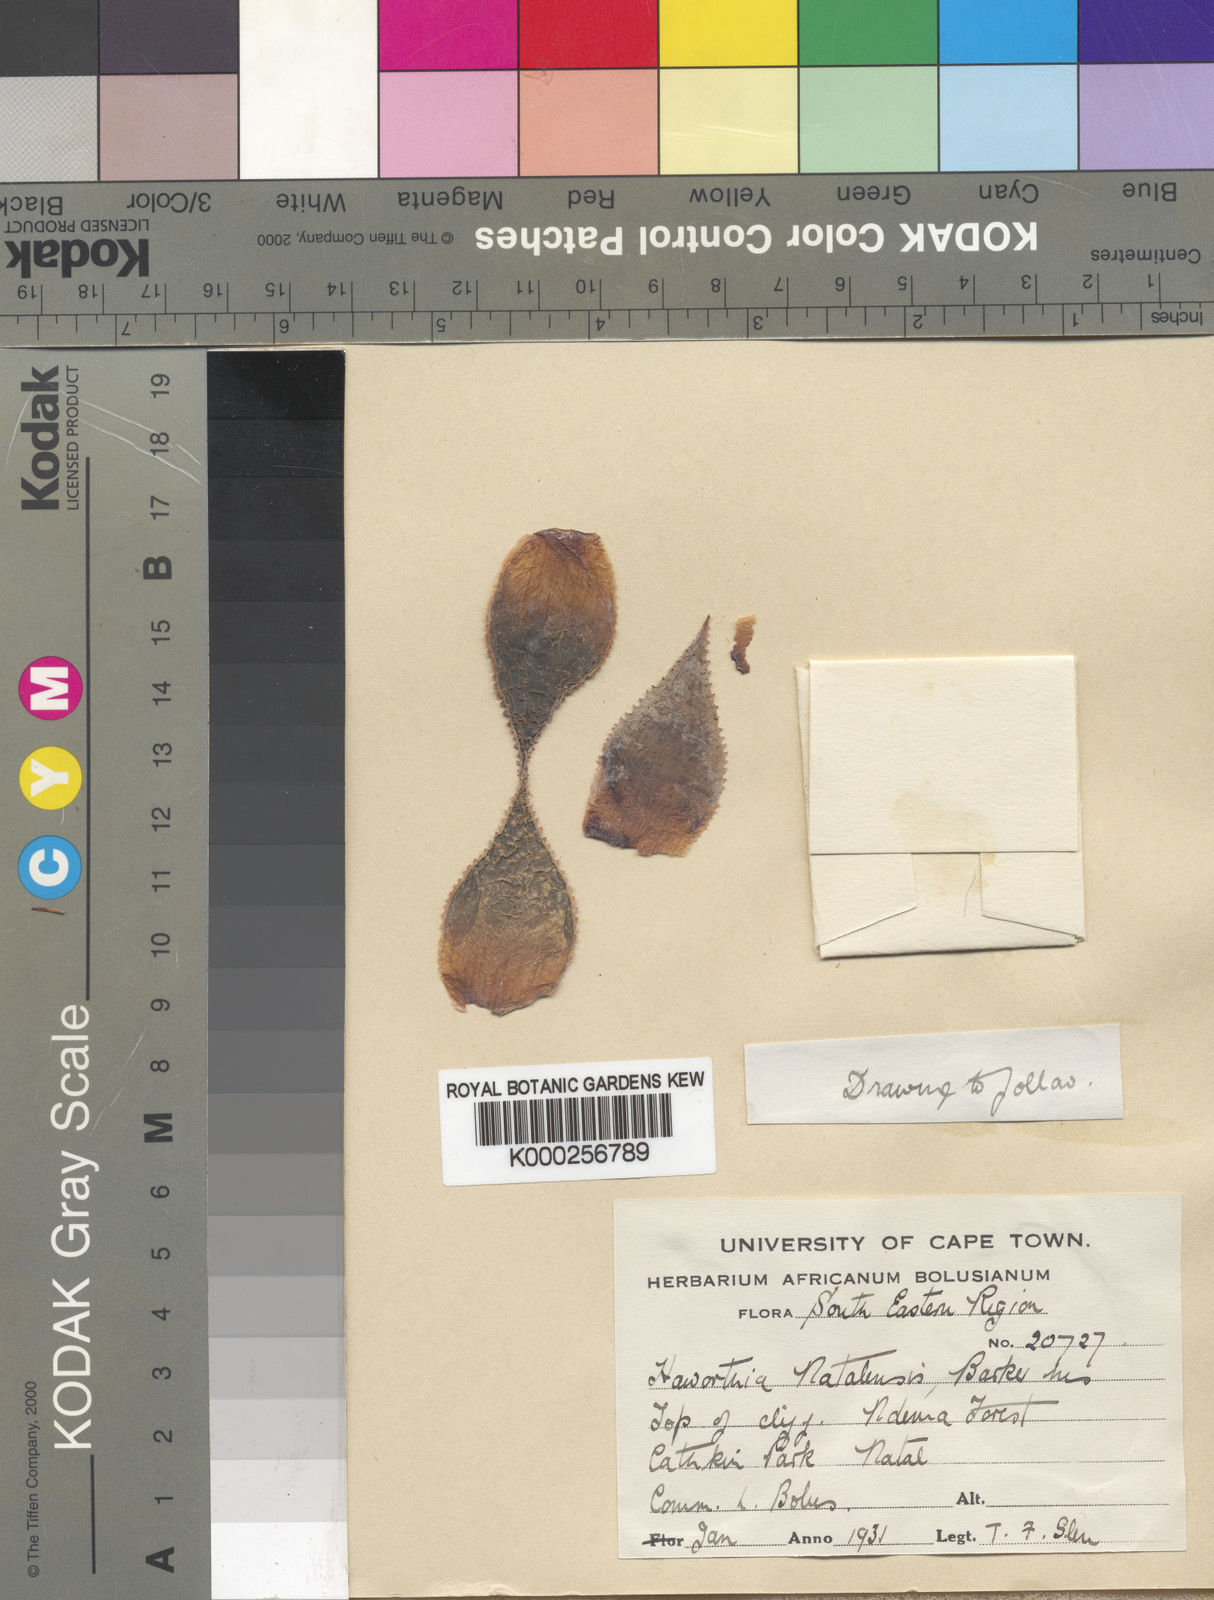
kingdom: Plantae
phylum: Tracheophyta
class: Liliopsida
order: Asparagales
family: Asphodelaceae
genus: Haworthia
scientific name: Haworthia
